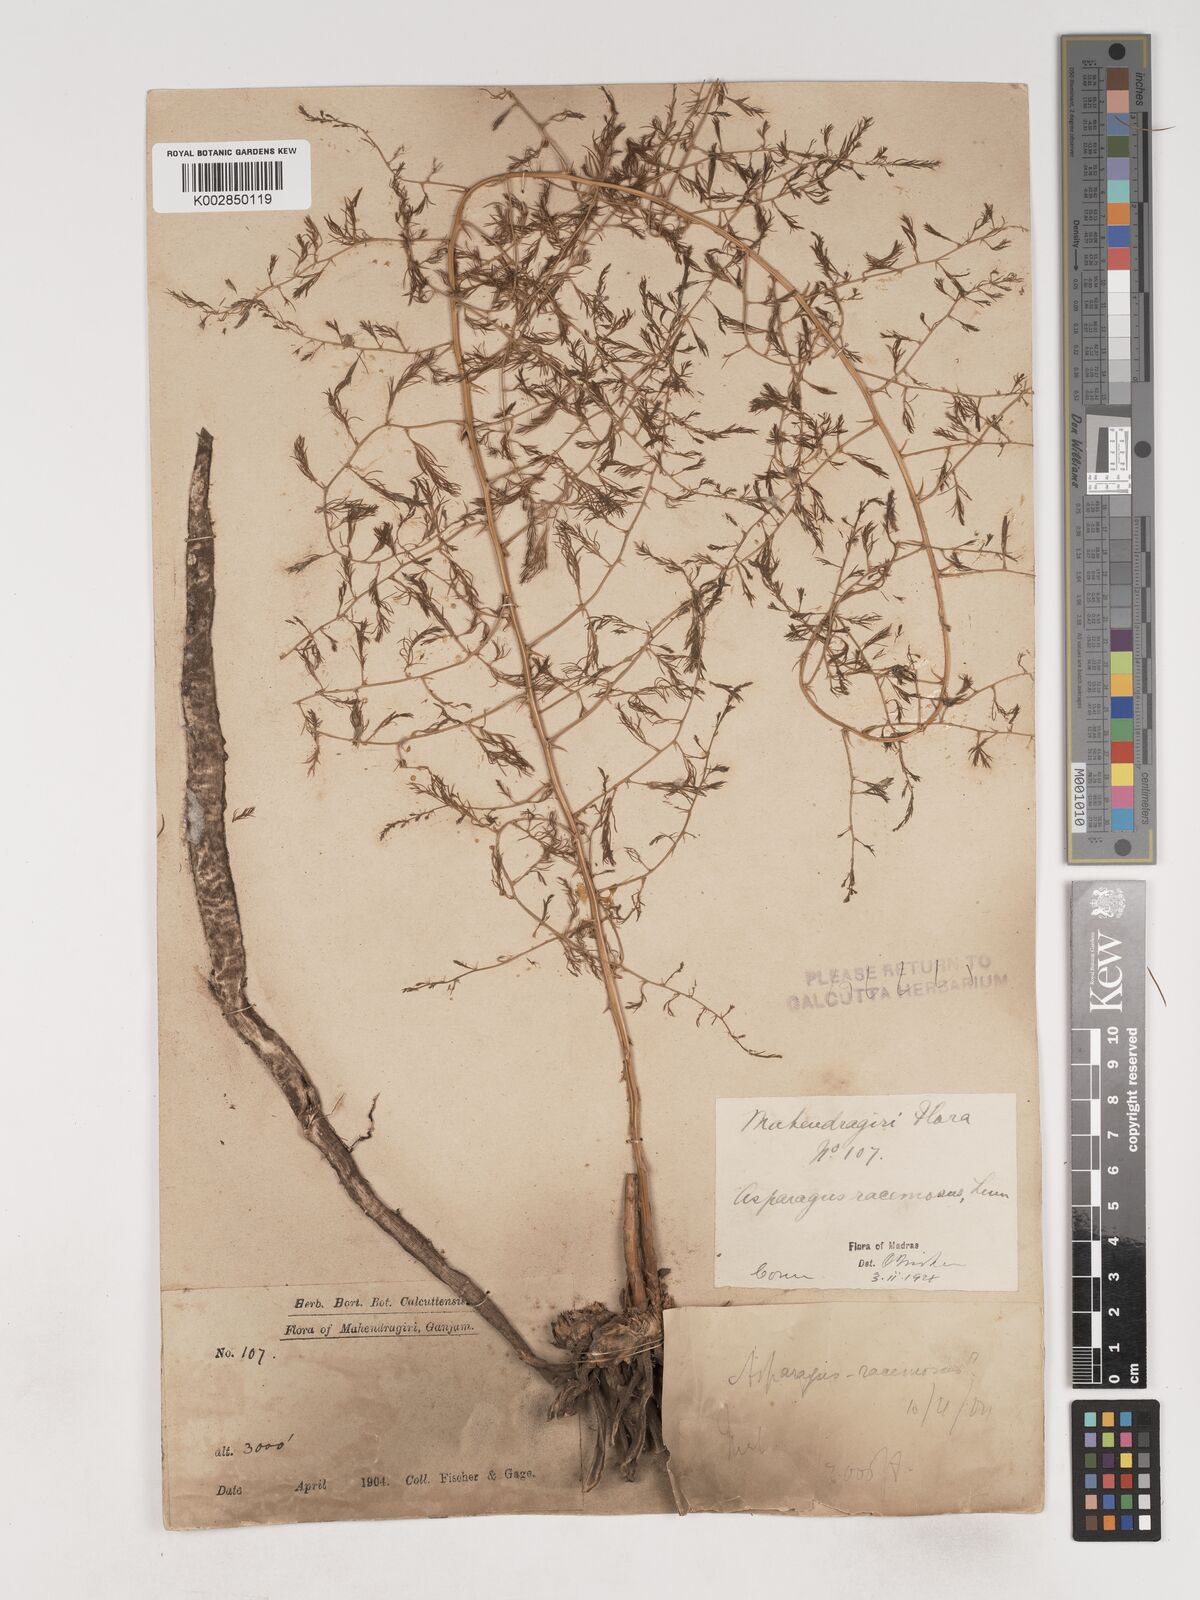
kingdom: Plantae
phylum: Tracheophyta
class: Liliopsida
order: Asparagales
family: Asparagaceae
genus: Asparagus
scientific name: Asparagus racemosus
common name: Asparagus-fern
